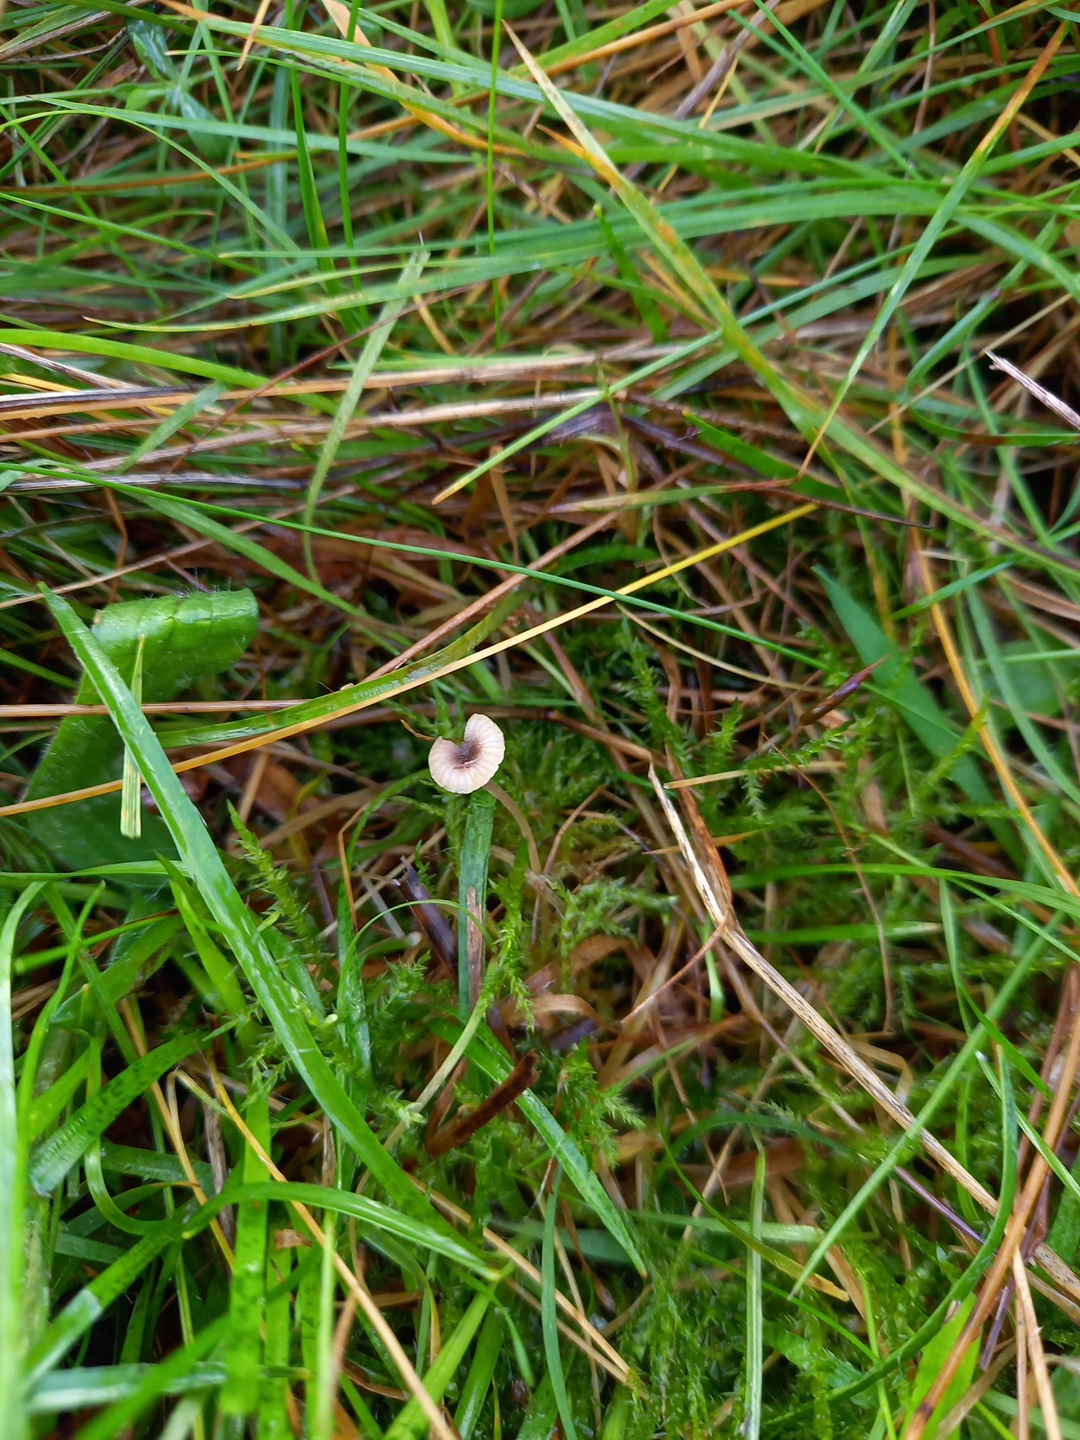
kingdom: Fungi
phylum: Basidiomycota
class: Agaricomycetes
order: Hymenochaetales
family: Rickenellaceae
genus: Rickenella
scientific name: Rickenella swartzii
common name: finstokket mosnavlehat
